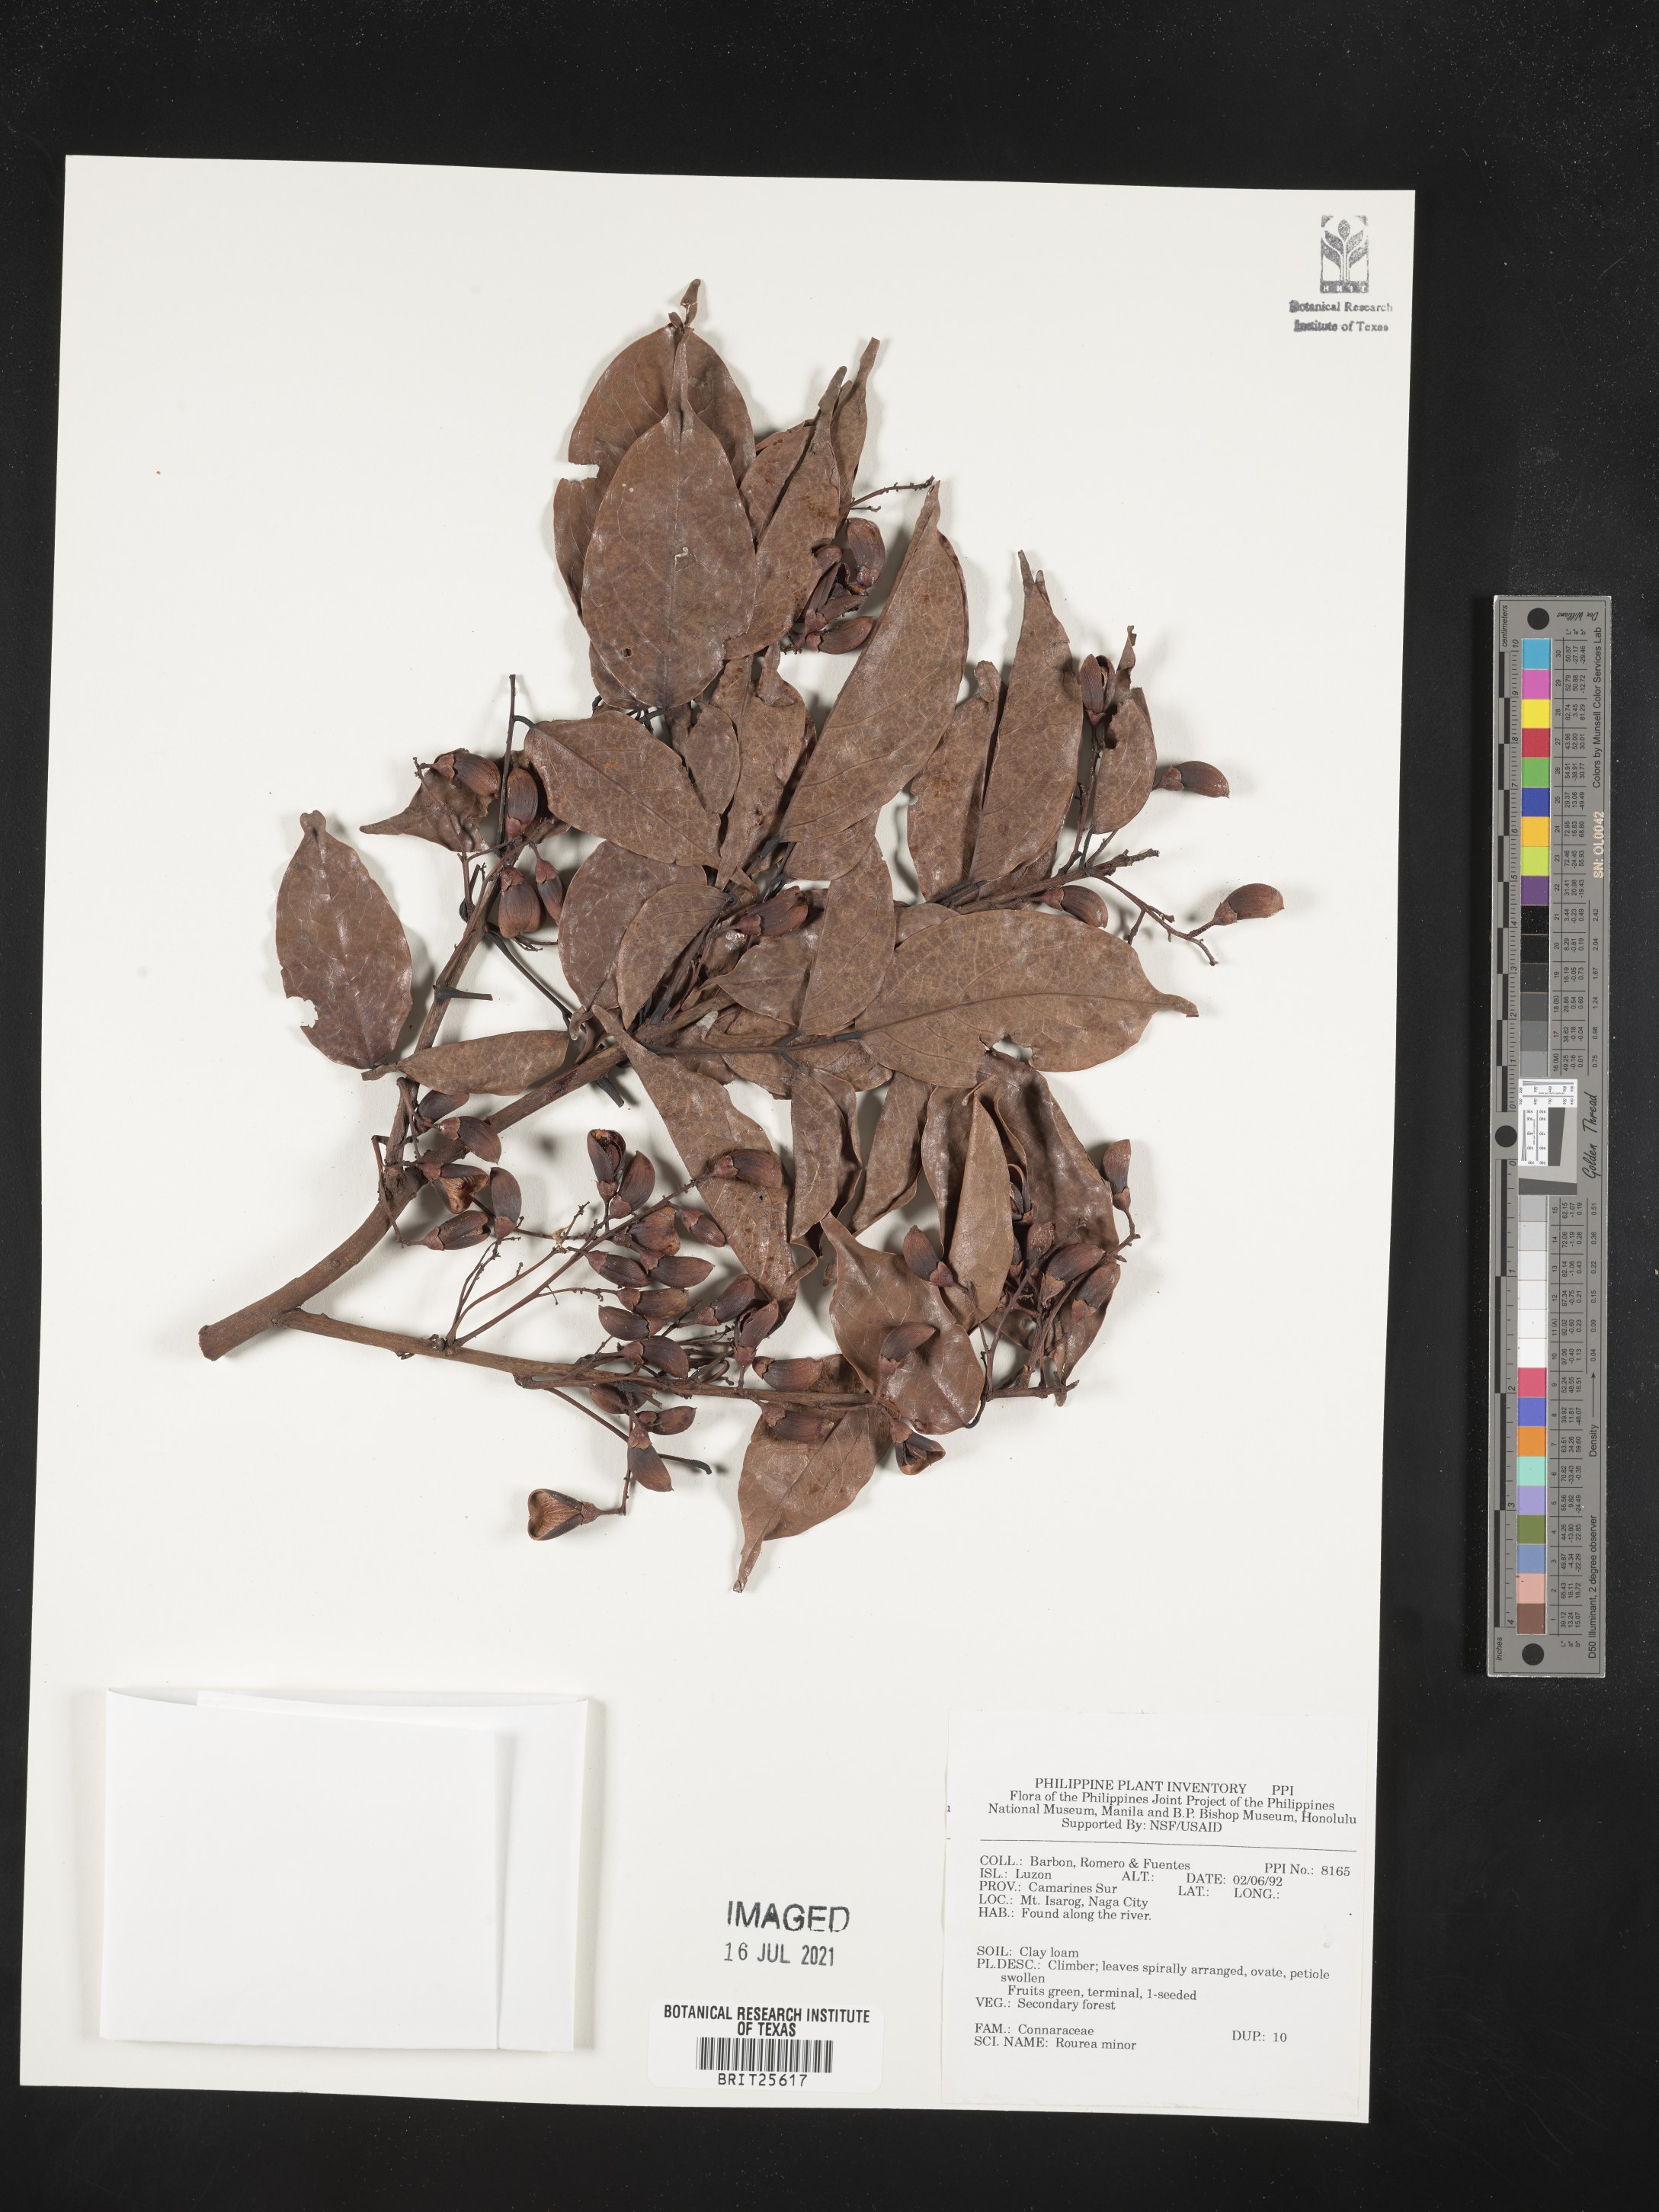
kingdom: Plantae
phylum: Tracheophyta
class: Magnoliopsida
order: Oxalidales
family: Connaraceae
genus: Rourea
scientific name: Rourea minor
